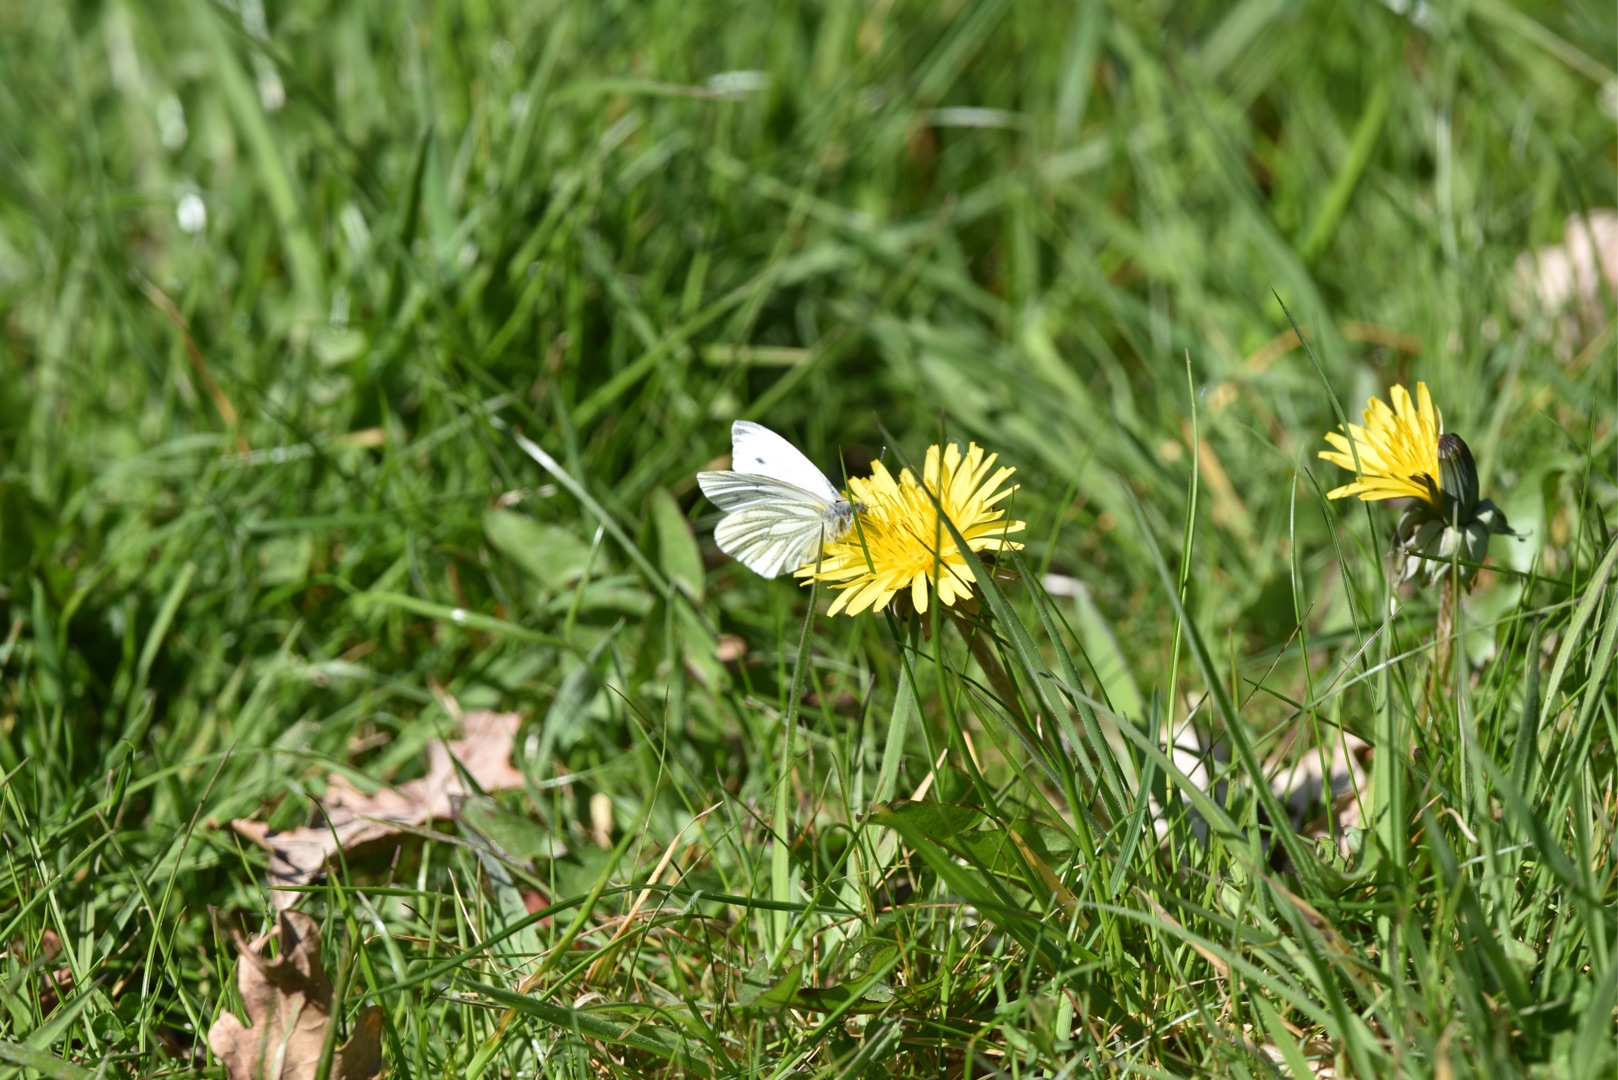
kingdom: Animalia
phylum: Arthropoda
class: Insecta
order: Lepidoptera
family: Pieridae
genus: Pieris
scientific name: Pieris napi
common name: Grønåret kålsommerfugl
